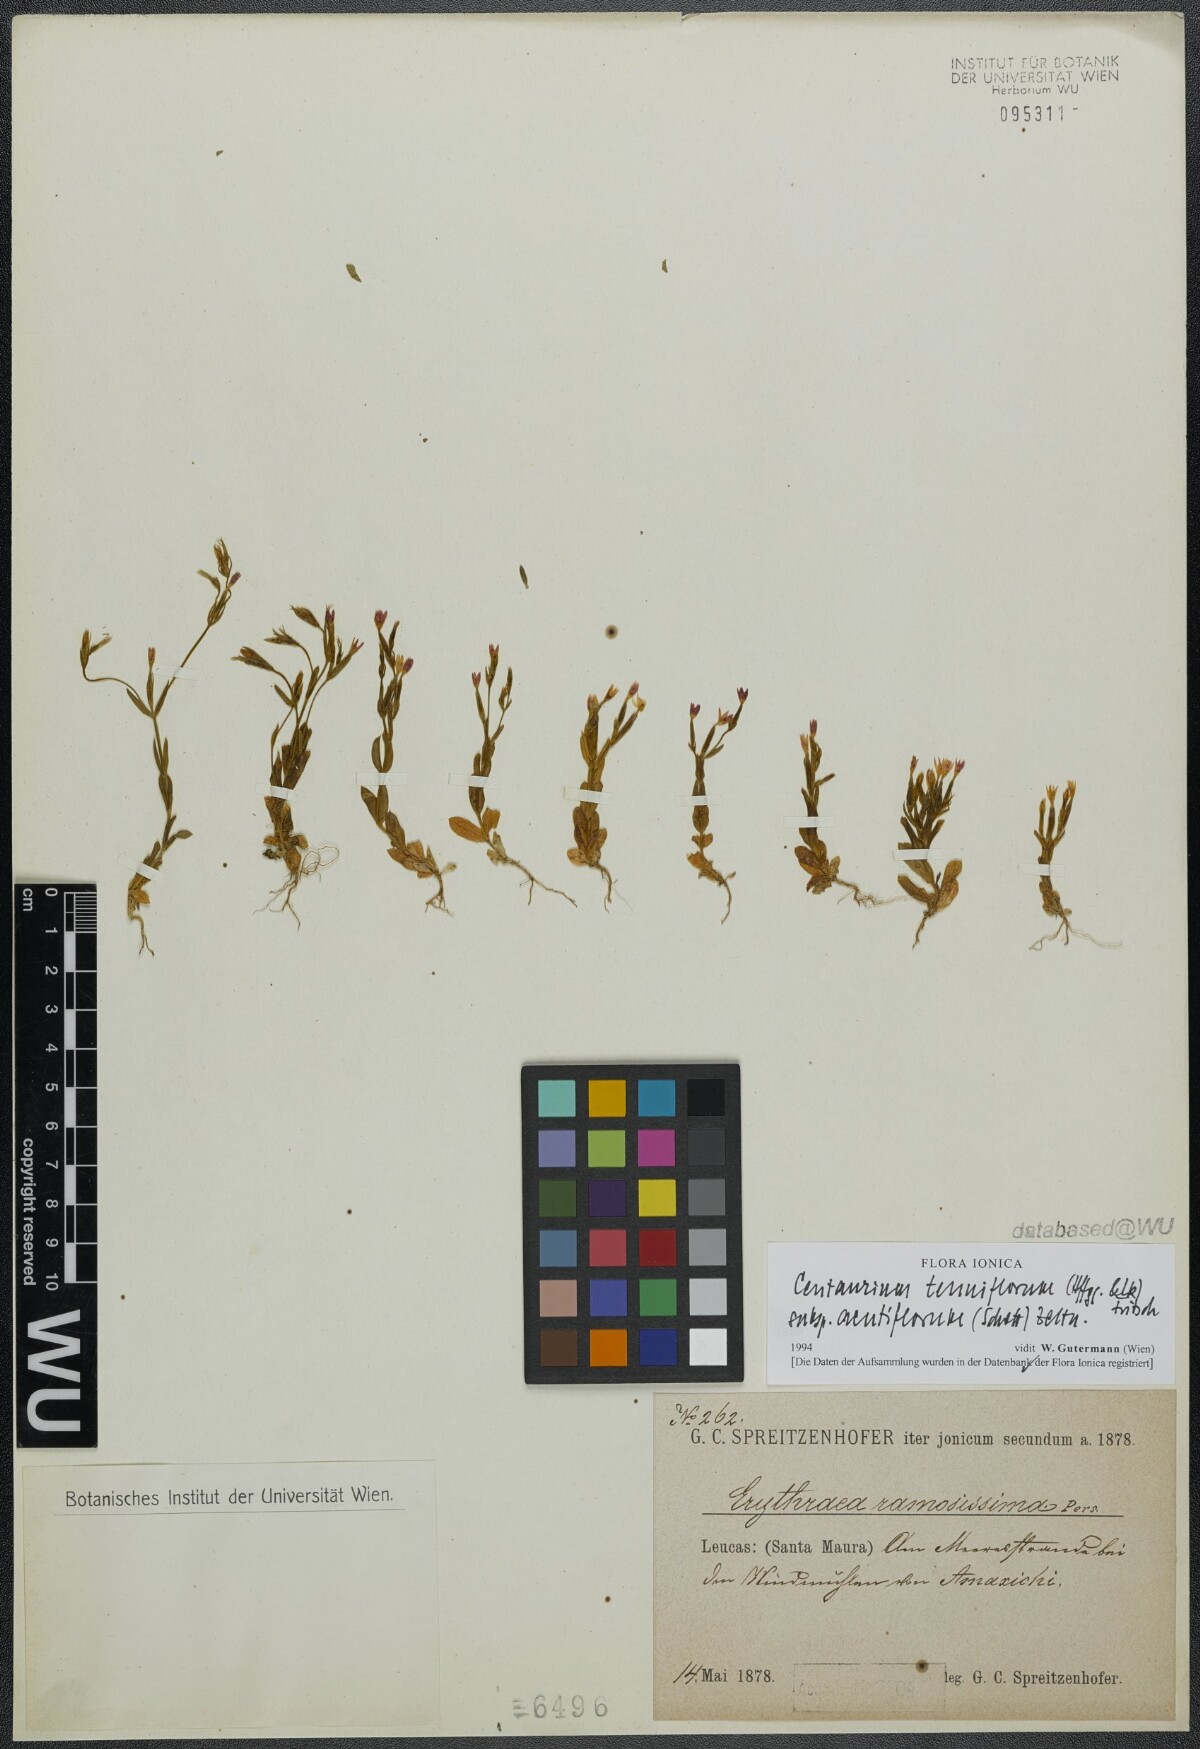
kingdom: Plantae
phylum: Tracheophyta
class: Magnoliopsida
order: Gentianales
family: Gentianaceae
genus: Centaurium
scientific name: Centaurium tenuiflorum
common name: Slender centaury
